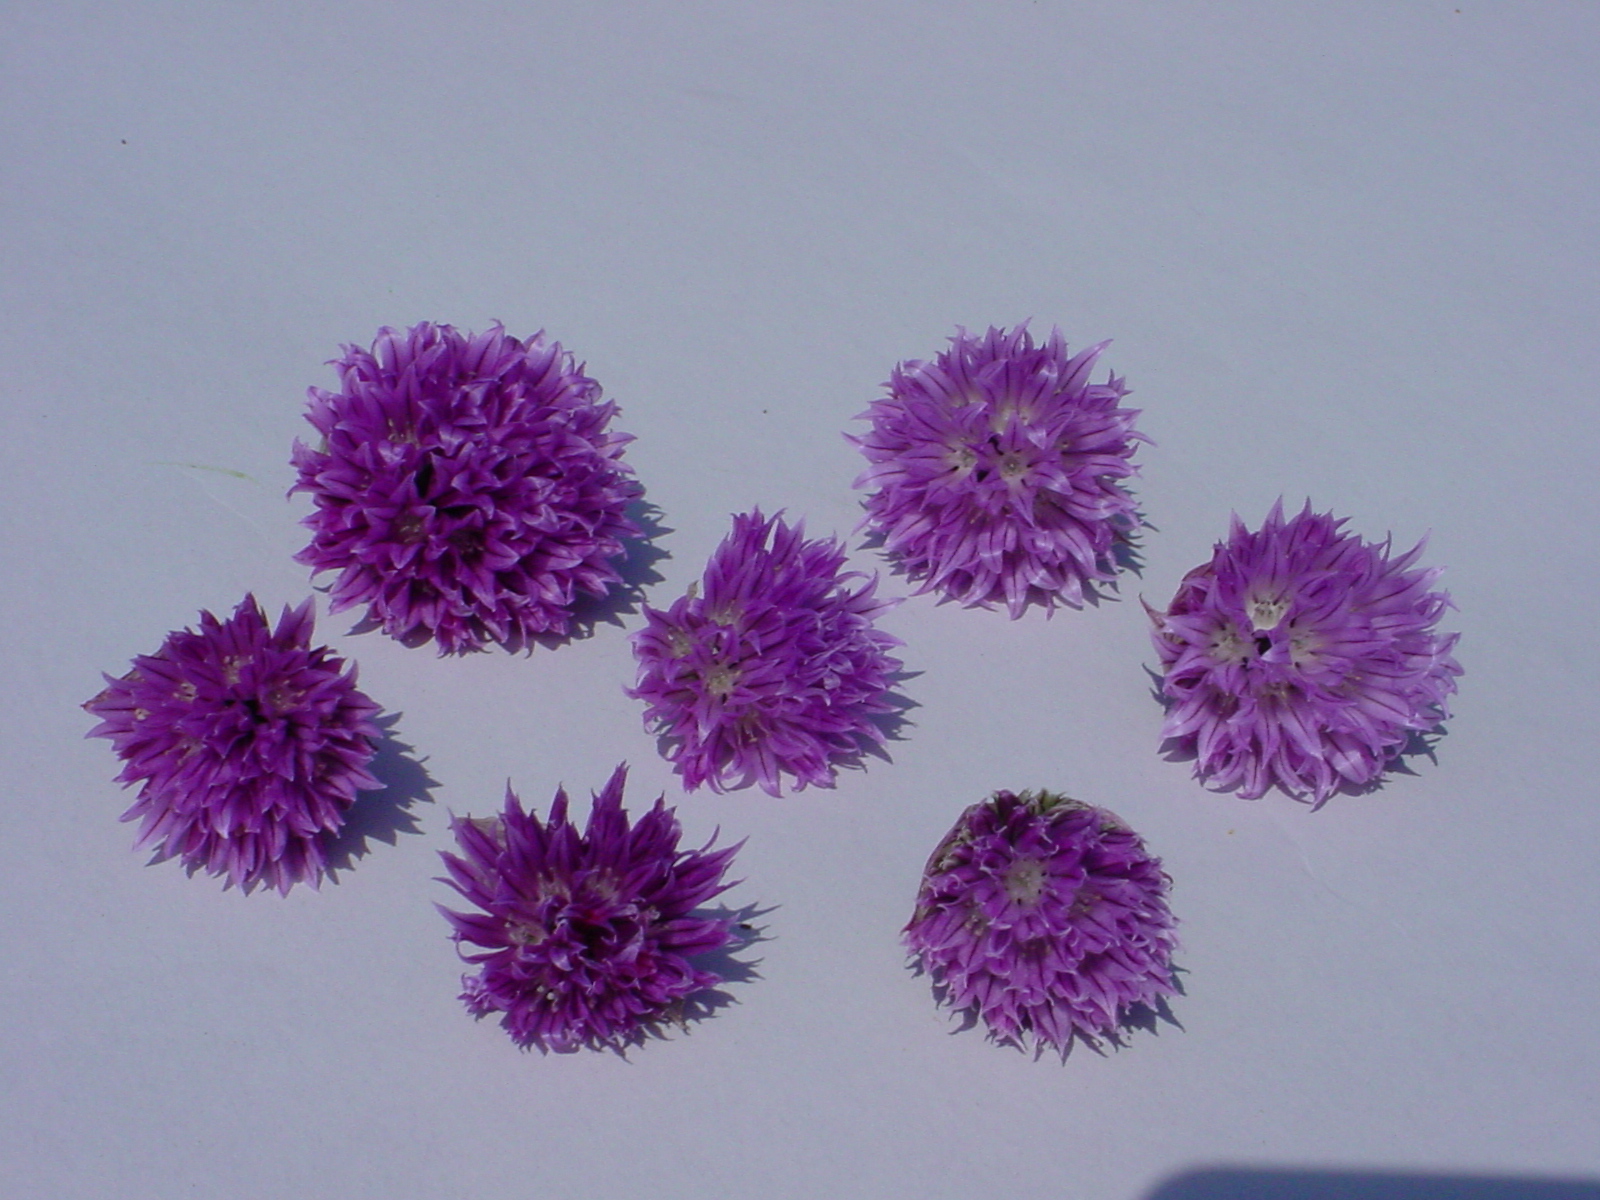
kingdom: Plantae
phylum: Tracheophyta
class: Liliopsida
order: Asparagales
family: Amaryllidaceae
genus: Allium
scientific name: Allium schoenoprasum
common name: Chives
